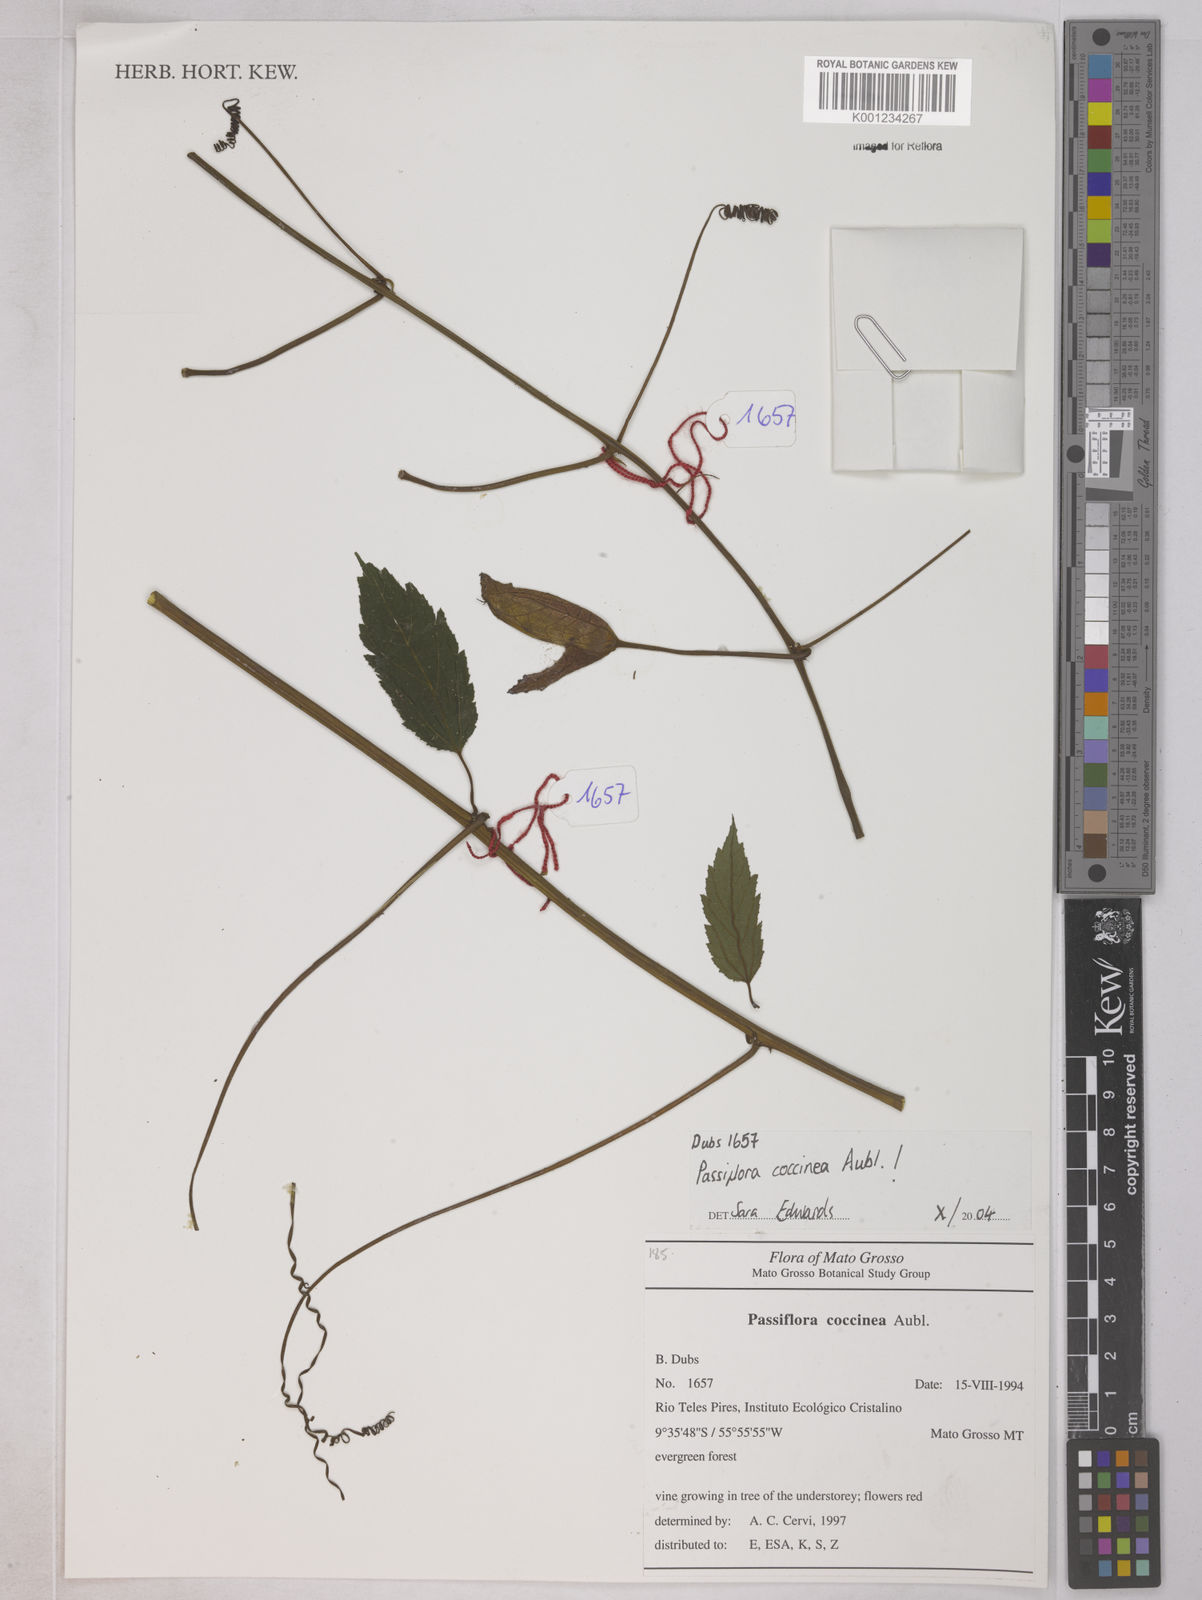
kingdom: Plantae
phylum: Tracheophyta
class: Magnoliopsida
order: Malpighiales
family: Passifloraceae
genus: Passiflora
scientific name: Passiflora coccinea
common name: Scarlet passionflower
